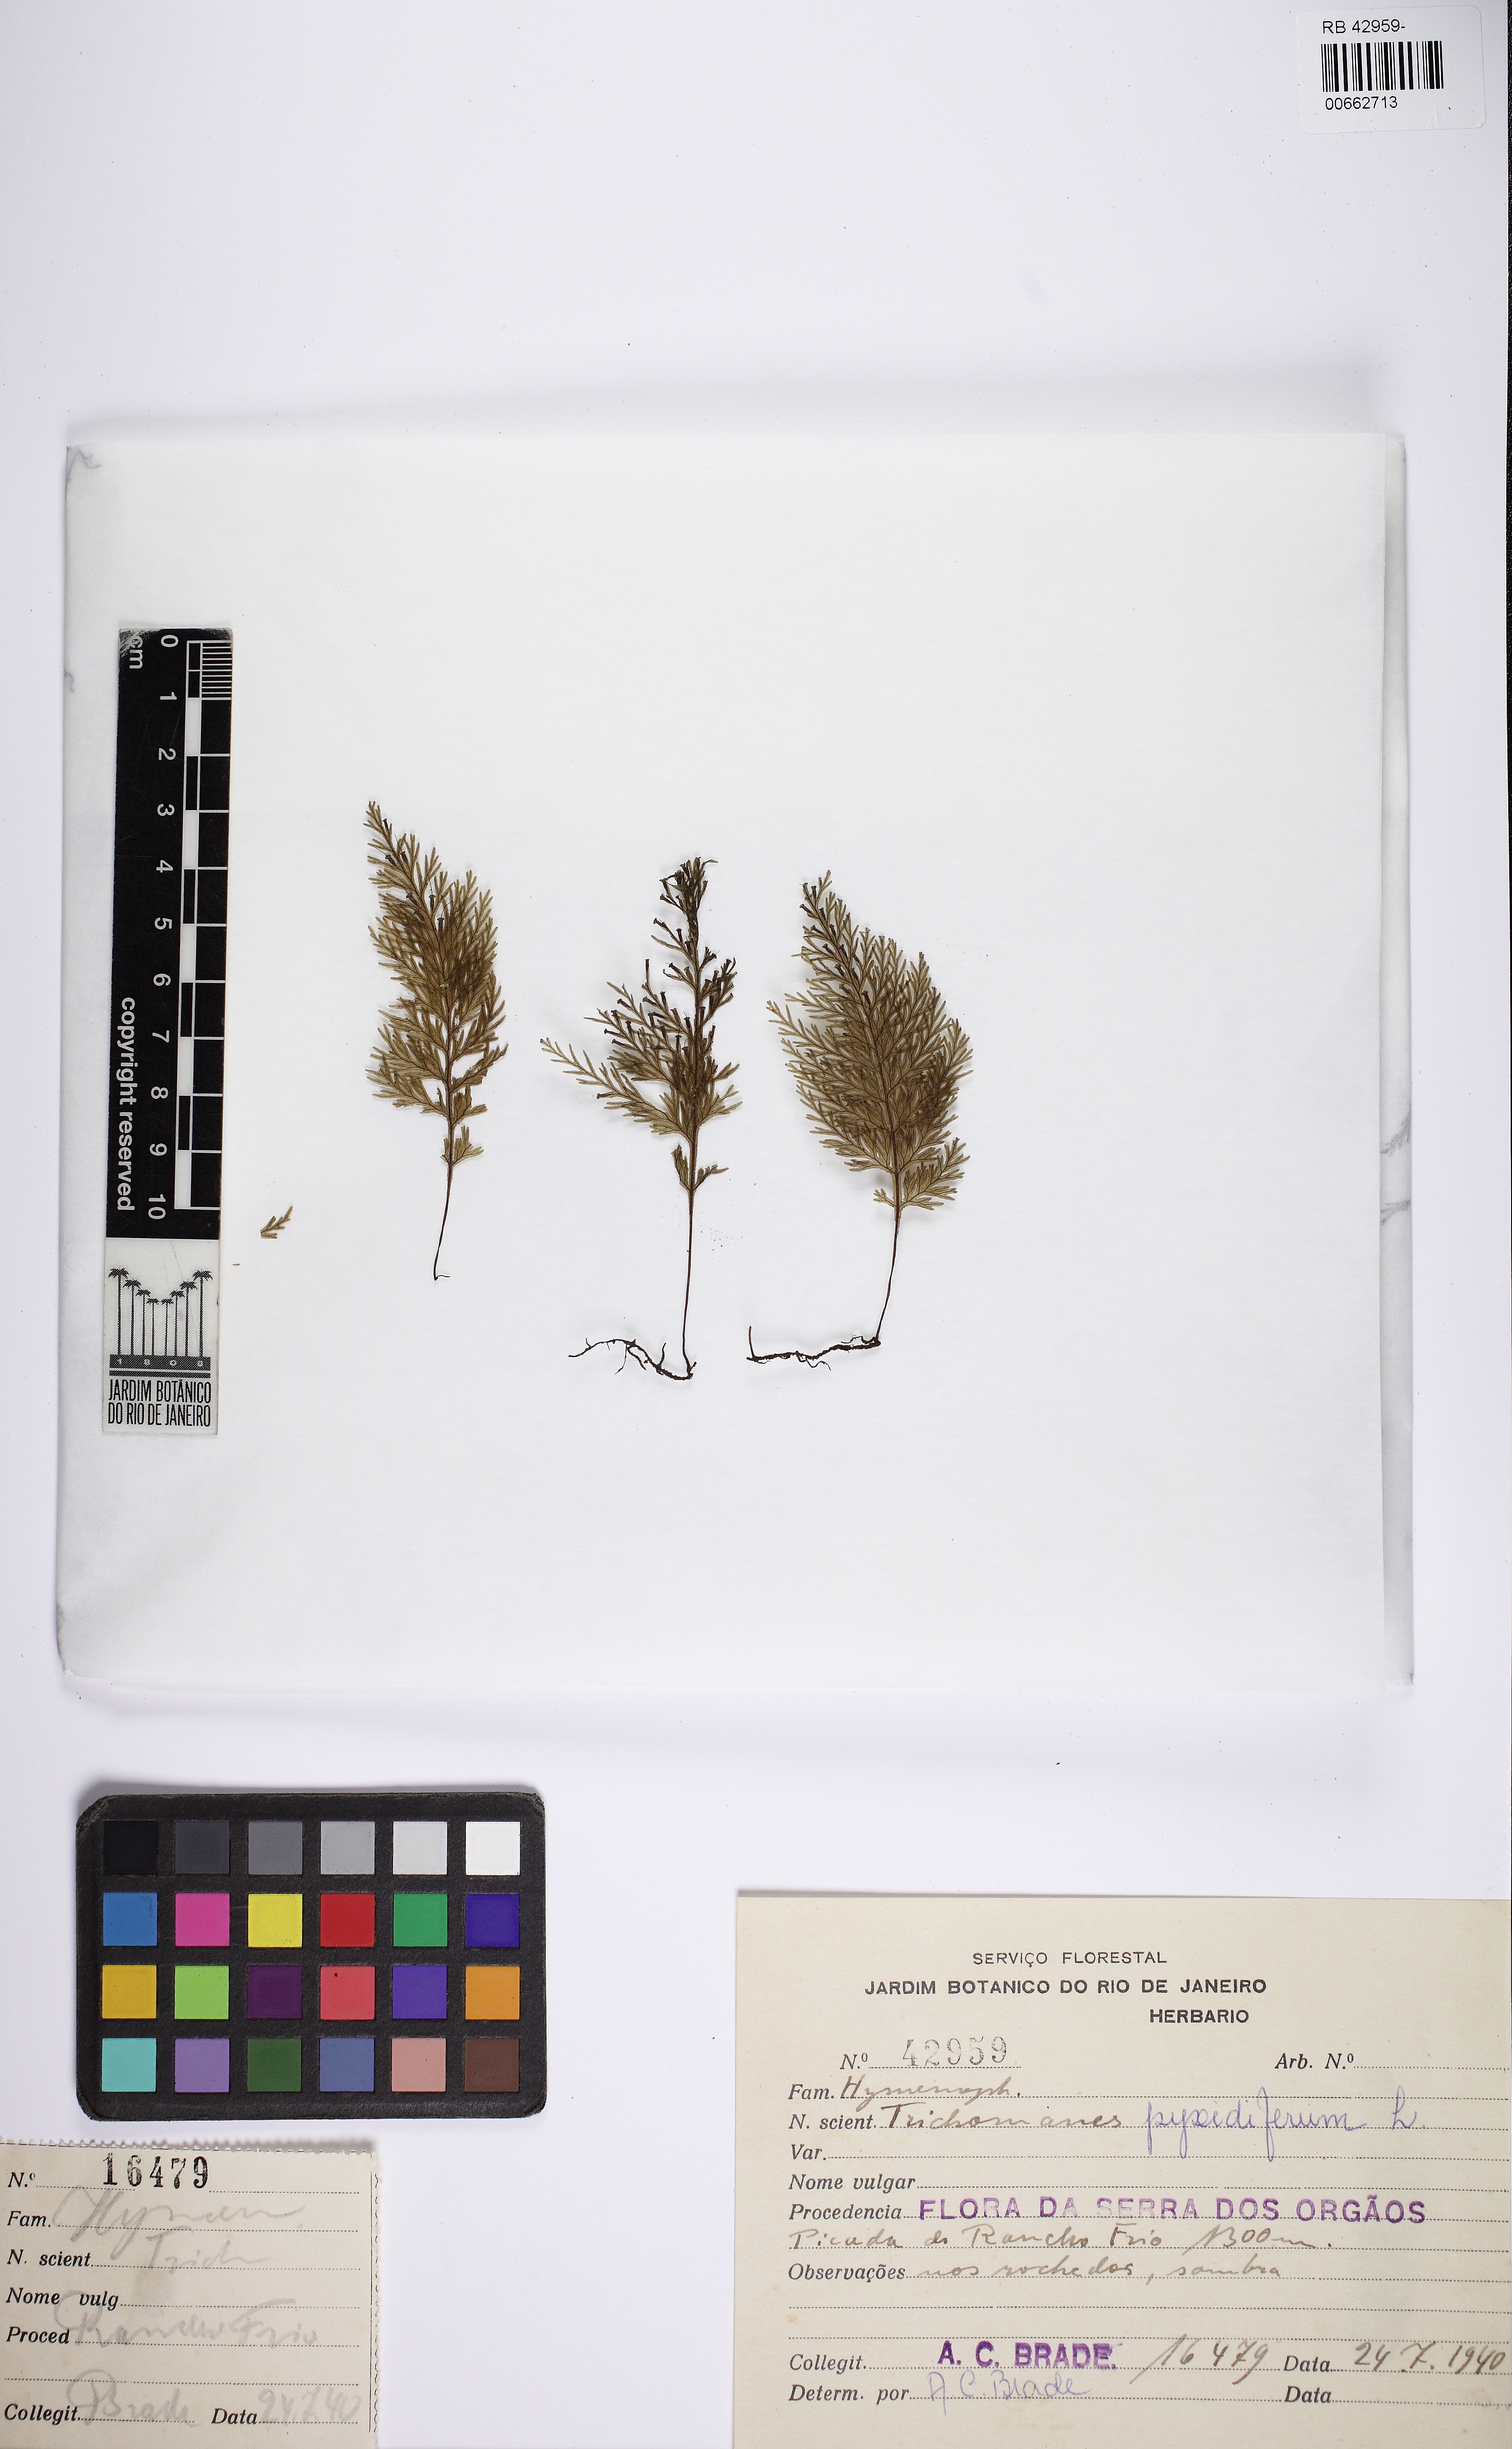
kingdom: Plantae
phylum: Tracheophyta
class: Polypodiopsida
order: Hymenophyllales
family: Hymenophyllaceae
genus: Polyphlebium
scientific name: Polyphlebium pyxidiferum
